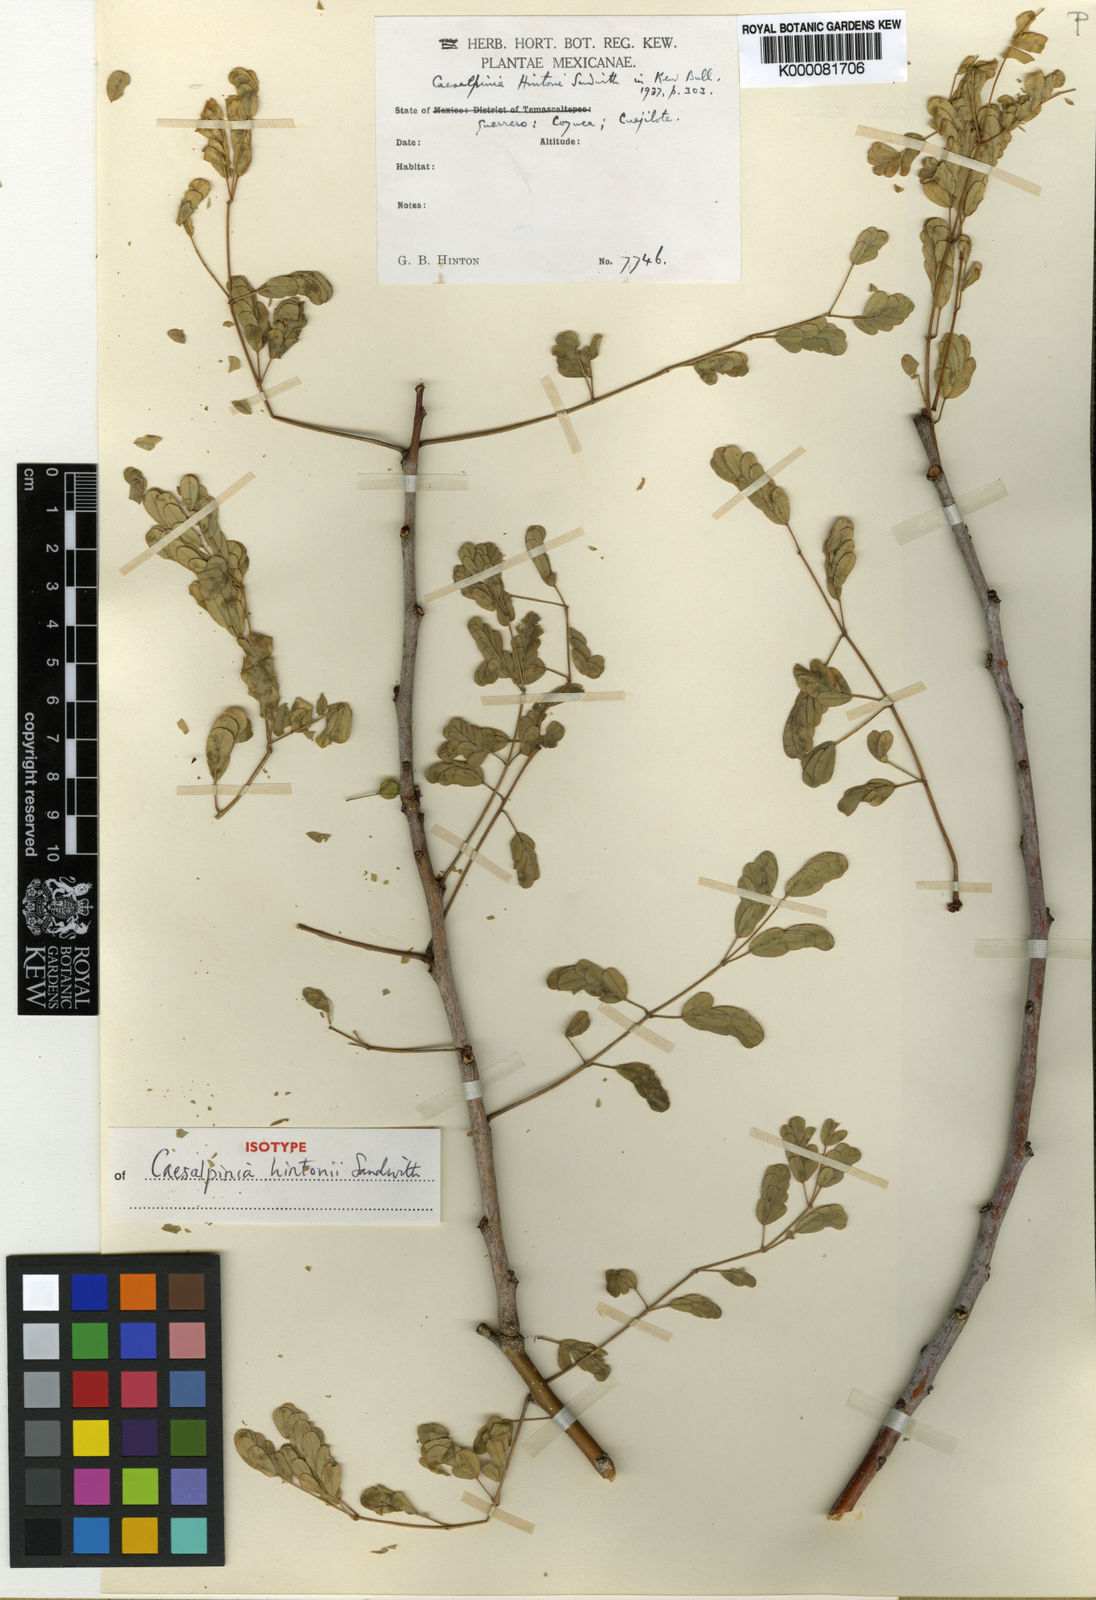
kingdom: Plantae
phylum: Tracheophyta
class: Magnoliopsida
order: Fabales
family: Fabaceae
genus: Erythrostemon
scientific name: Erythrostemon hintonii
